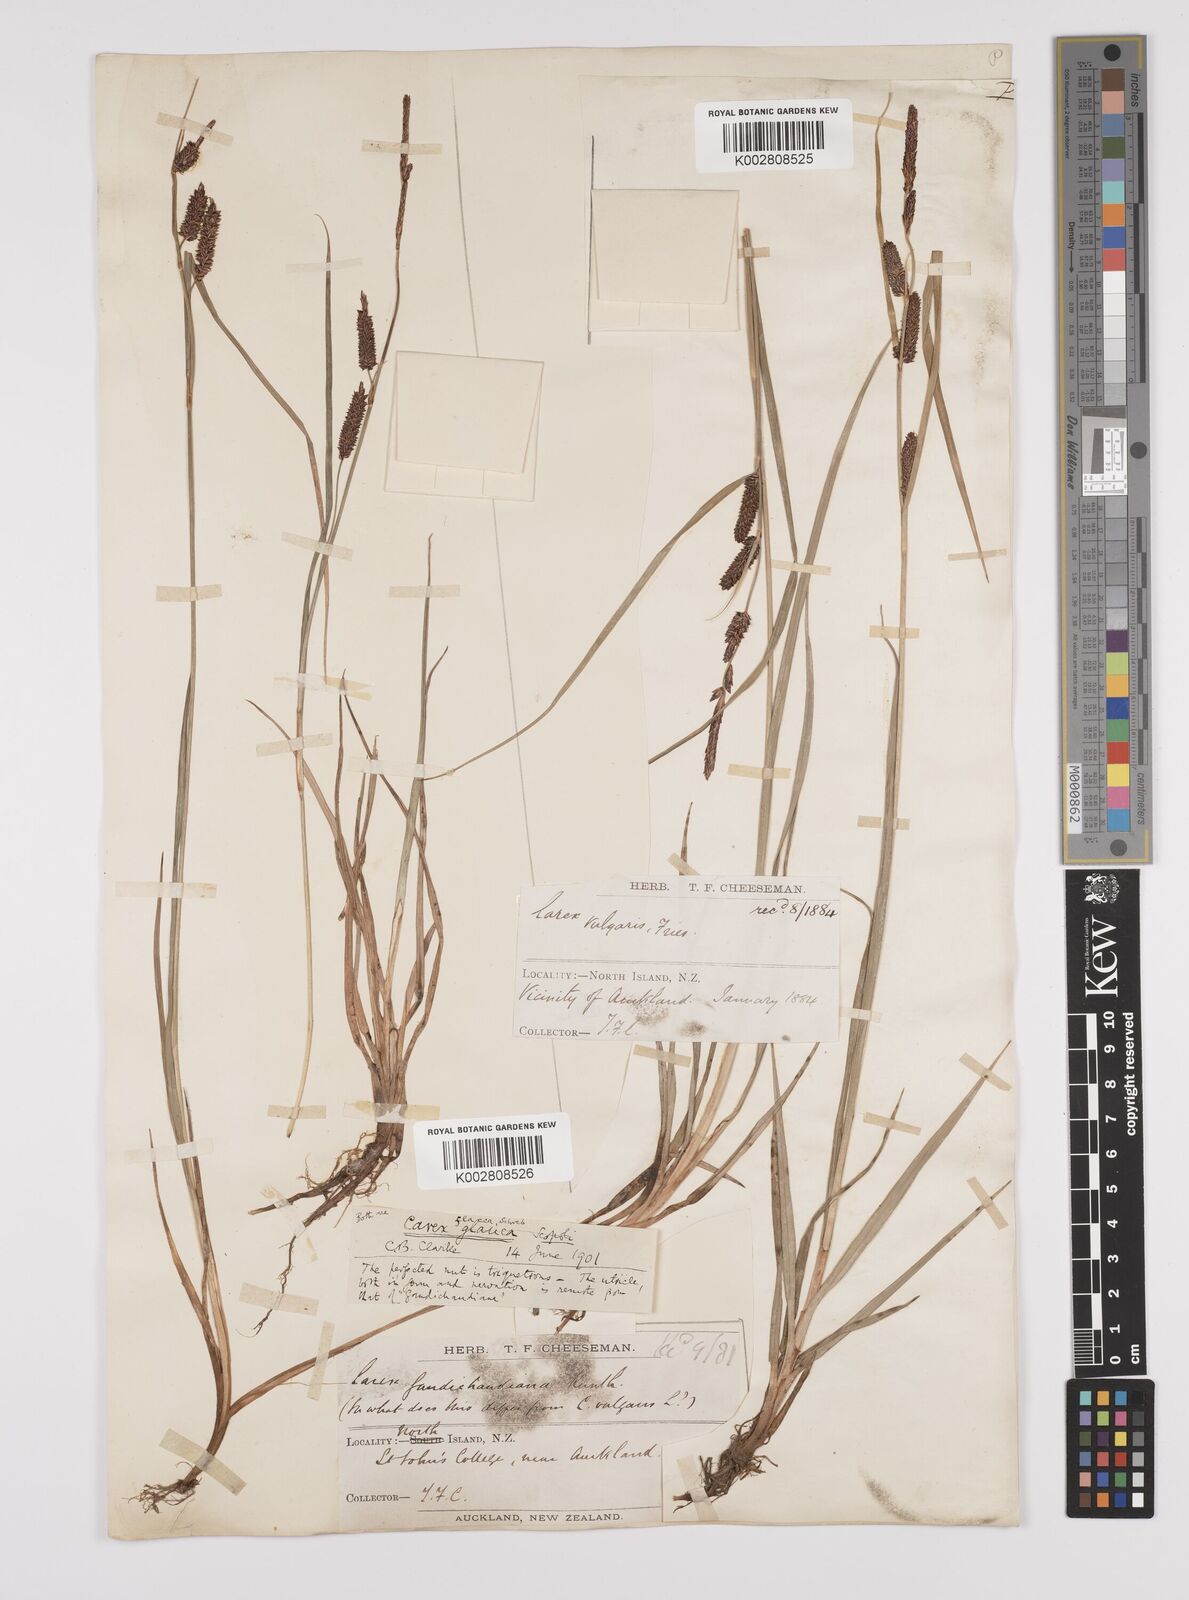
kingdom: Plantae
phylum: Tracheophyta
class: Liliopsida
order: Poales
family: Cyperaceae
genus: Carex
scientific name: Carex flacca
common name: Glaucous sedge
